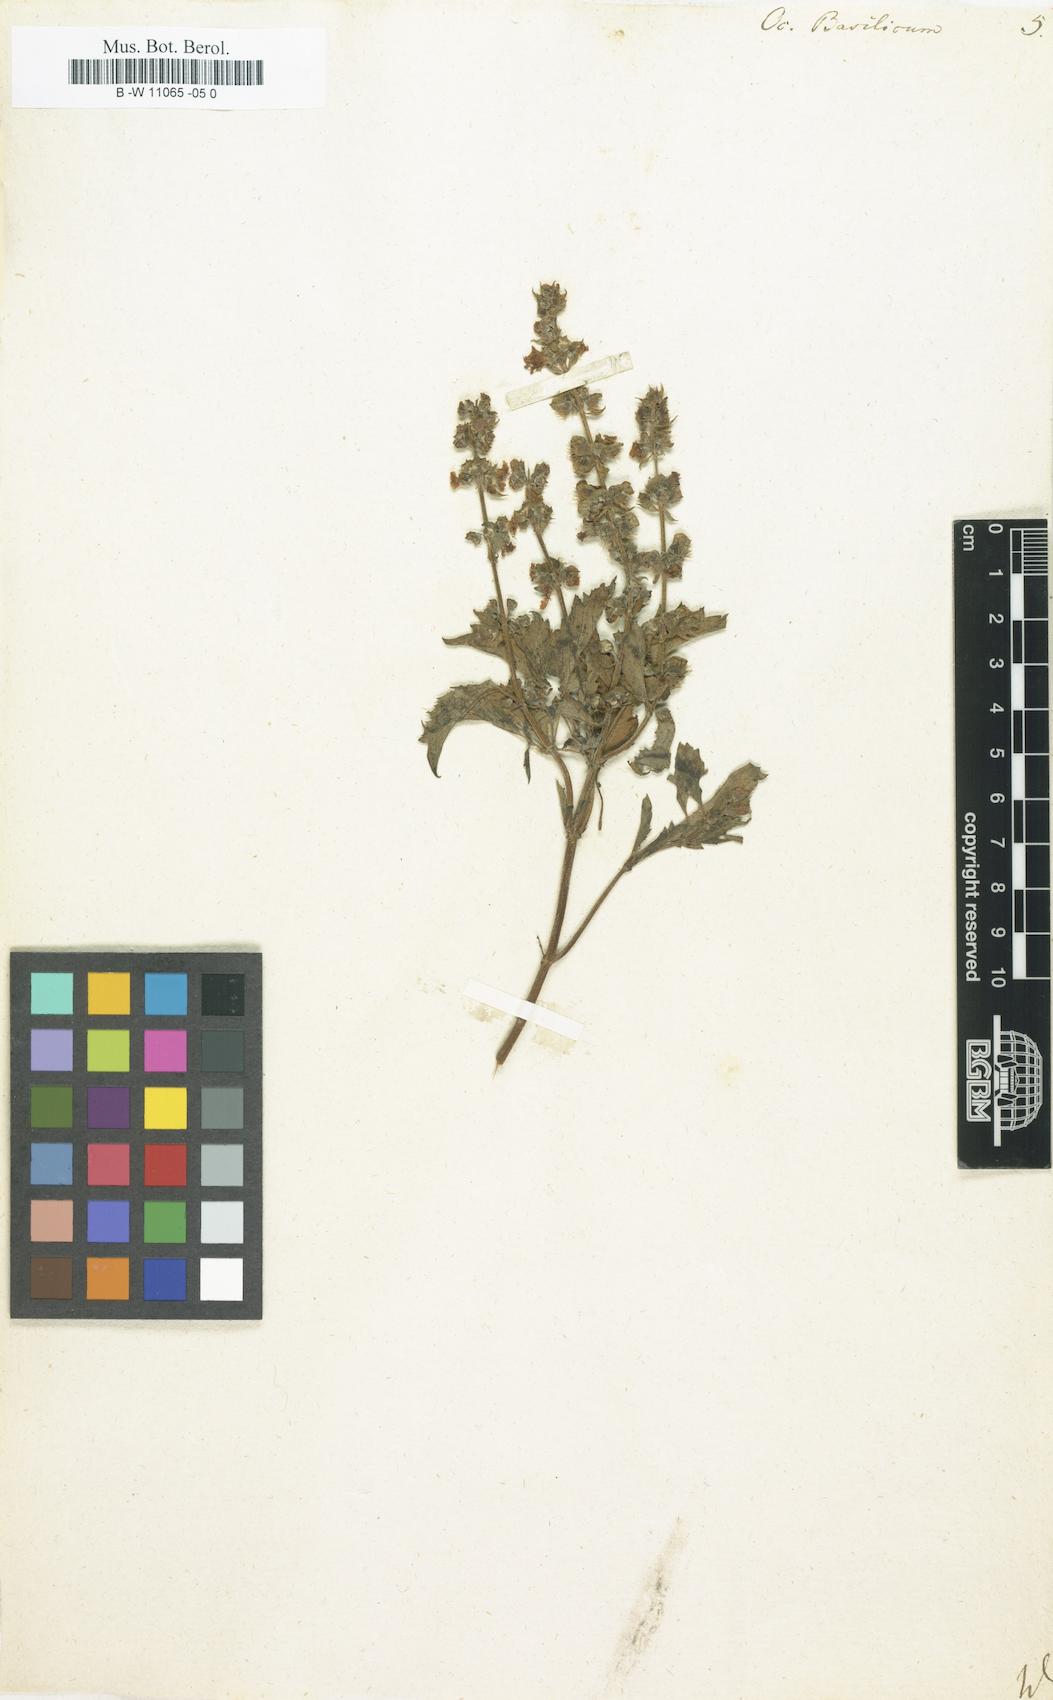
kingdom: Plantae
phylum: Tracheophyta
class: Magnoliopsida
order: Lamiales
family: Lamiaceae
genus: Ocimum
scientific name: Ocimum basilicum
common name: Sweet basil
